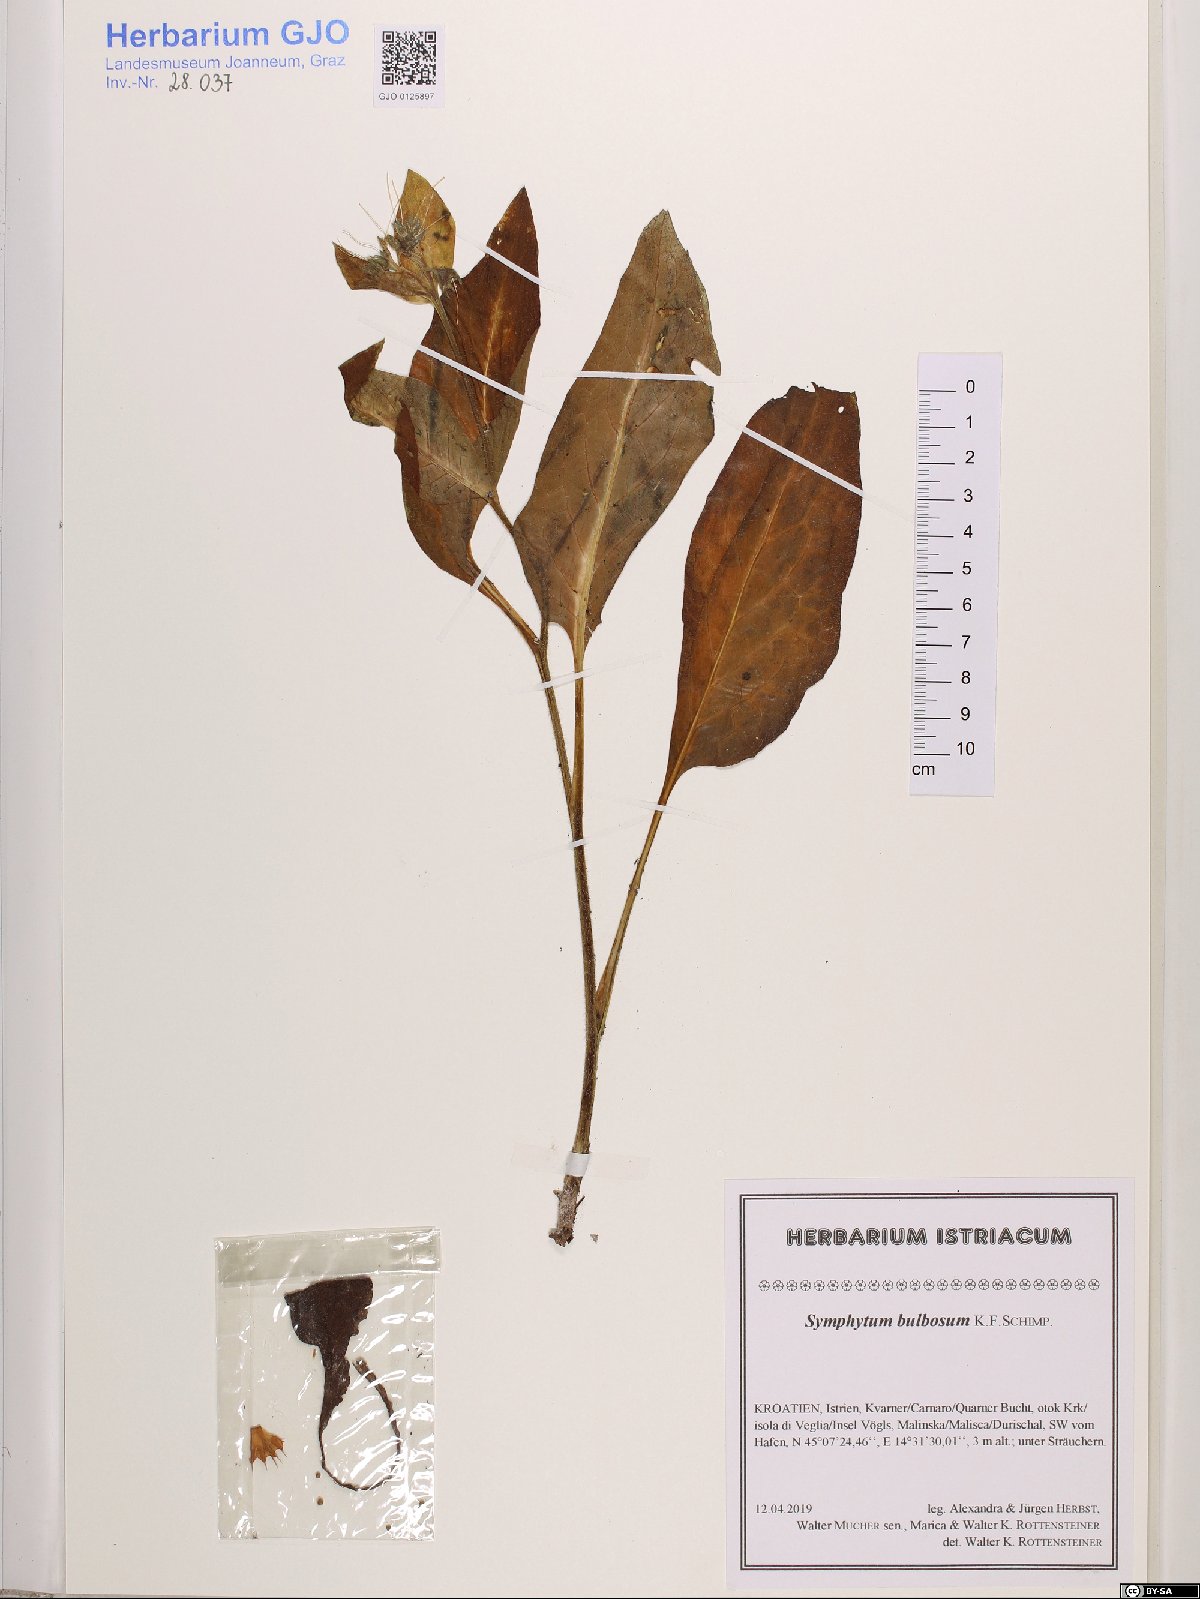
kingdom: Plantae
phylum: Tracheophyta
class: Magnoliopsida
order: Boraginales
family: Boraginaceae
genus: Symphytum
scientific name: Symphytum bulbosum
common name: Bulbous comfrey
